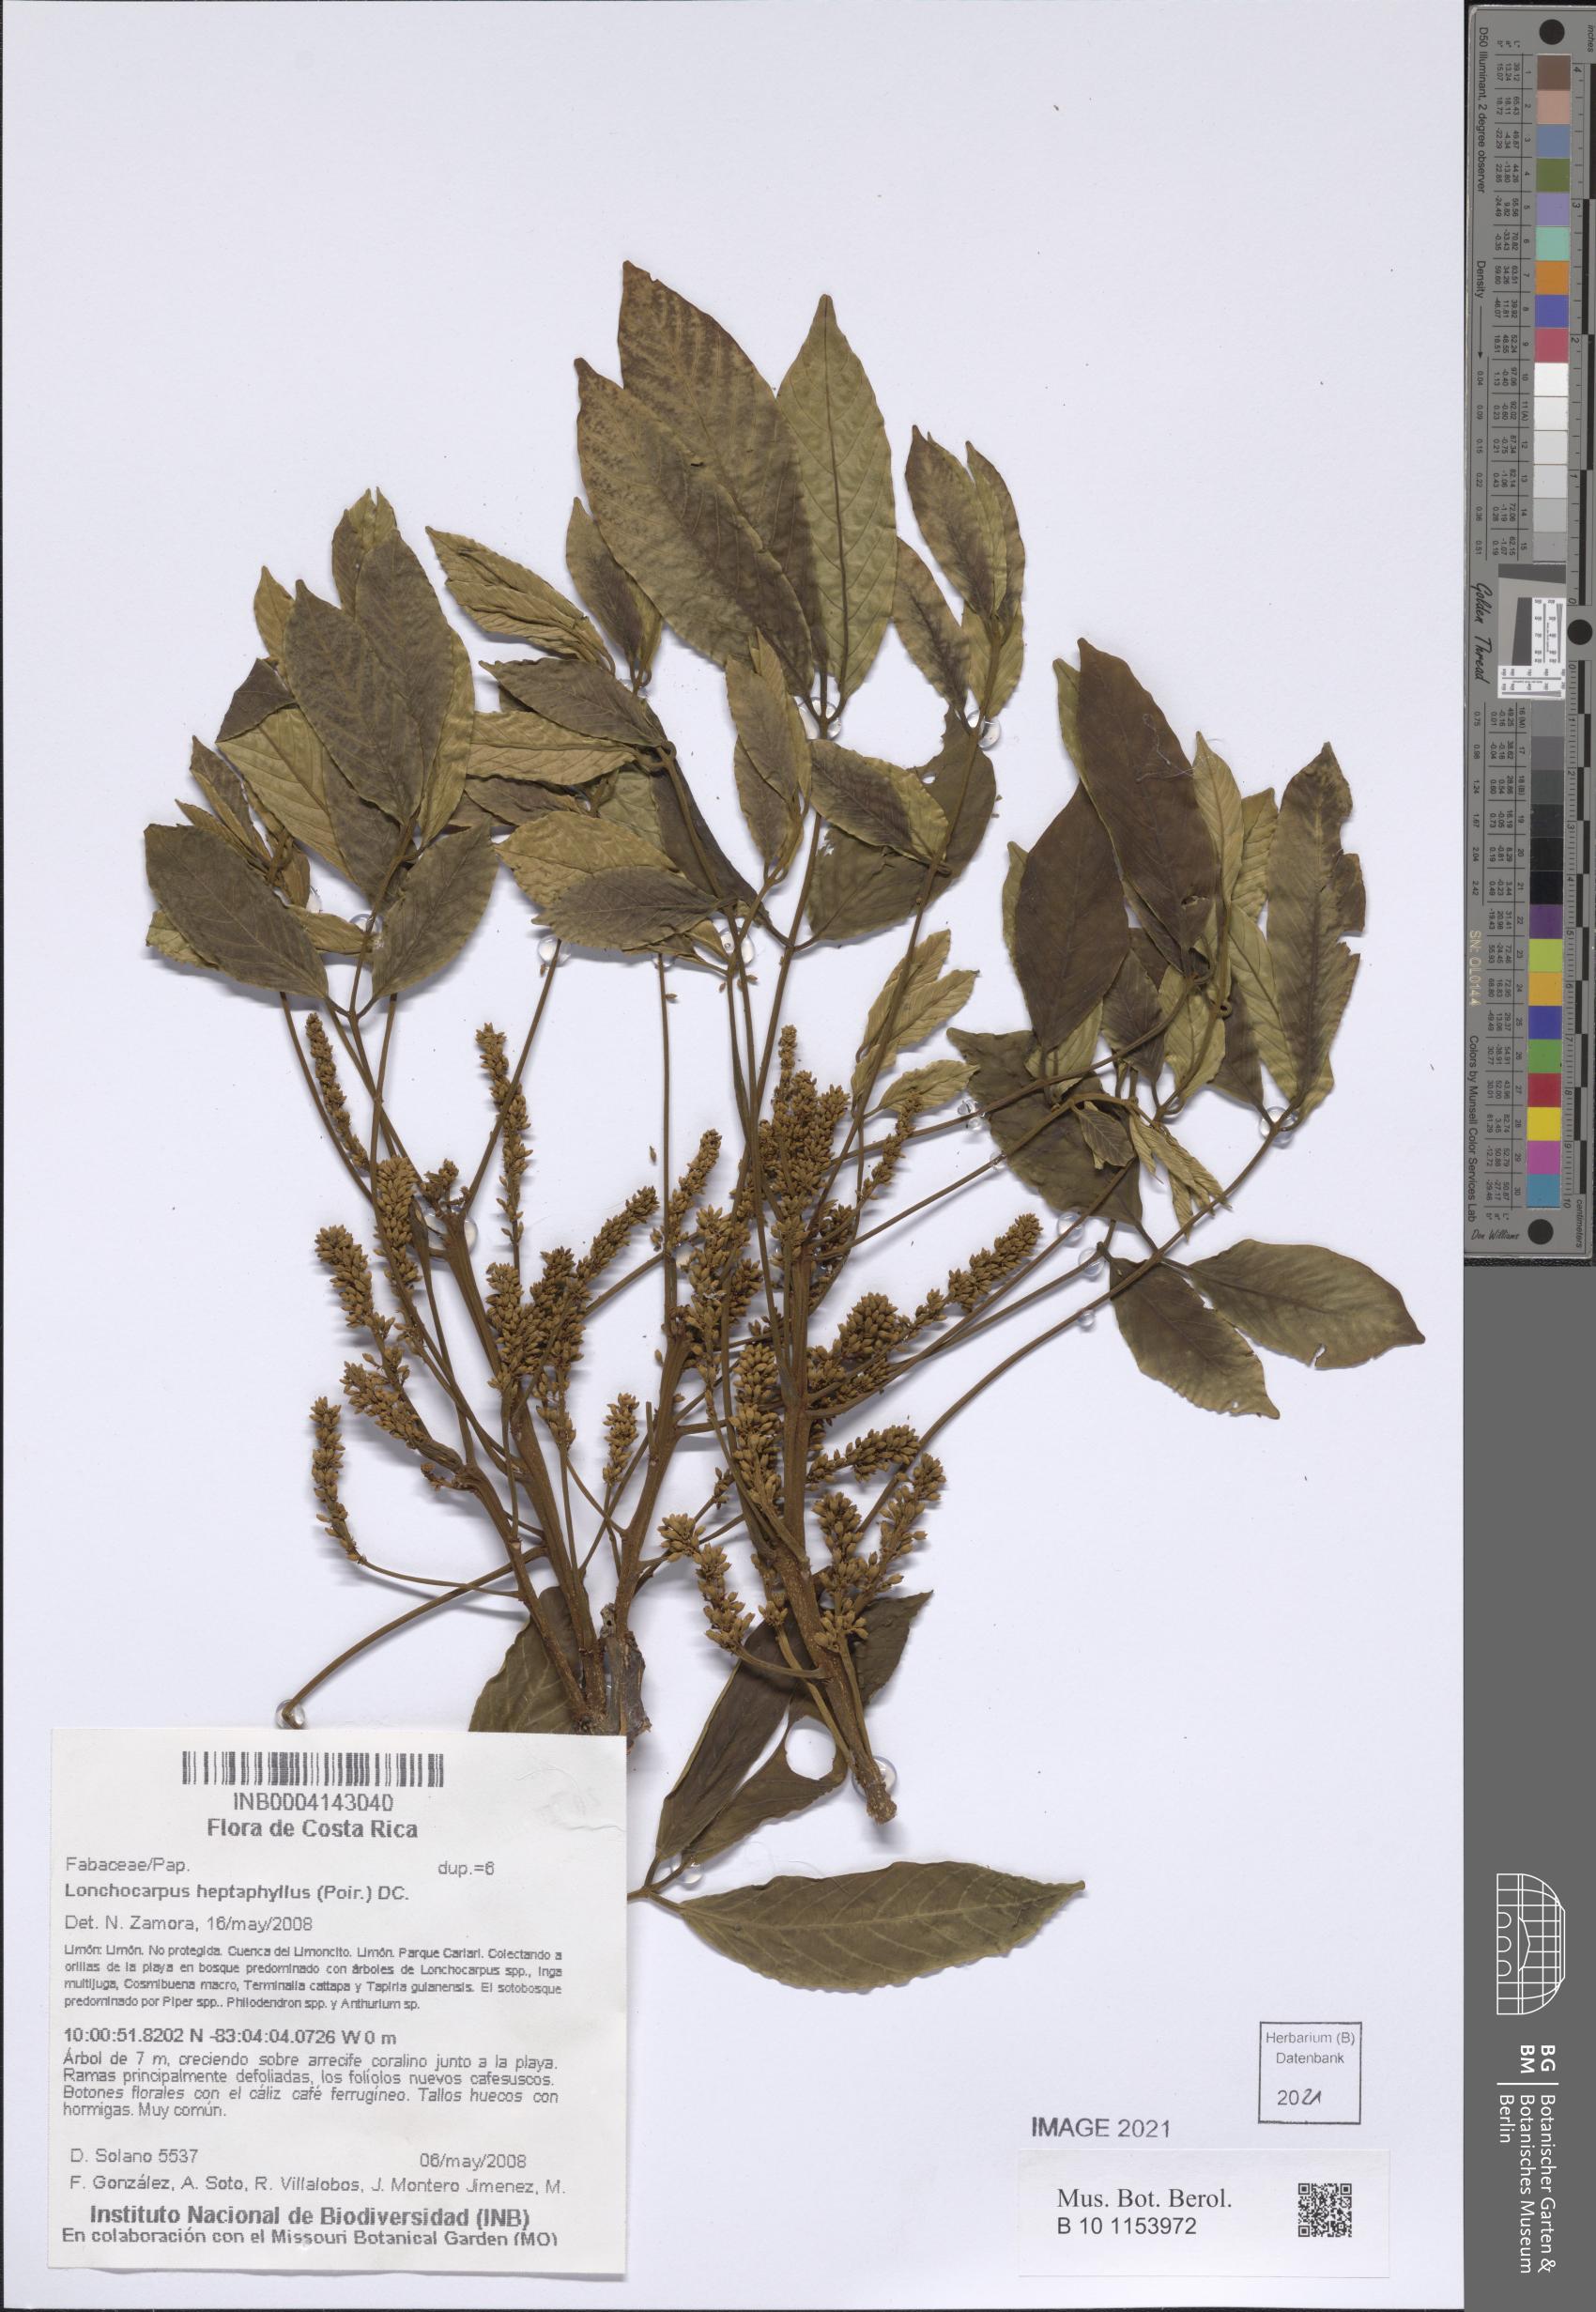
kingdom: Plantae
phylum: Tracheophyta
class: Magnoliopsida
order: Fabales
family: Fabaceae
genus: Lonchocarpus
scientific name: Lonchocarpus heptaphyllus
